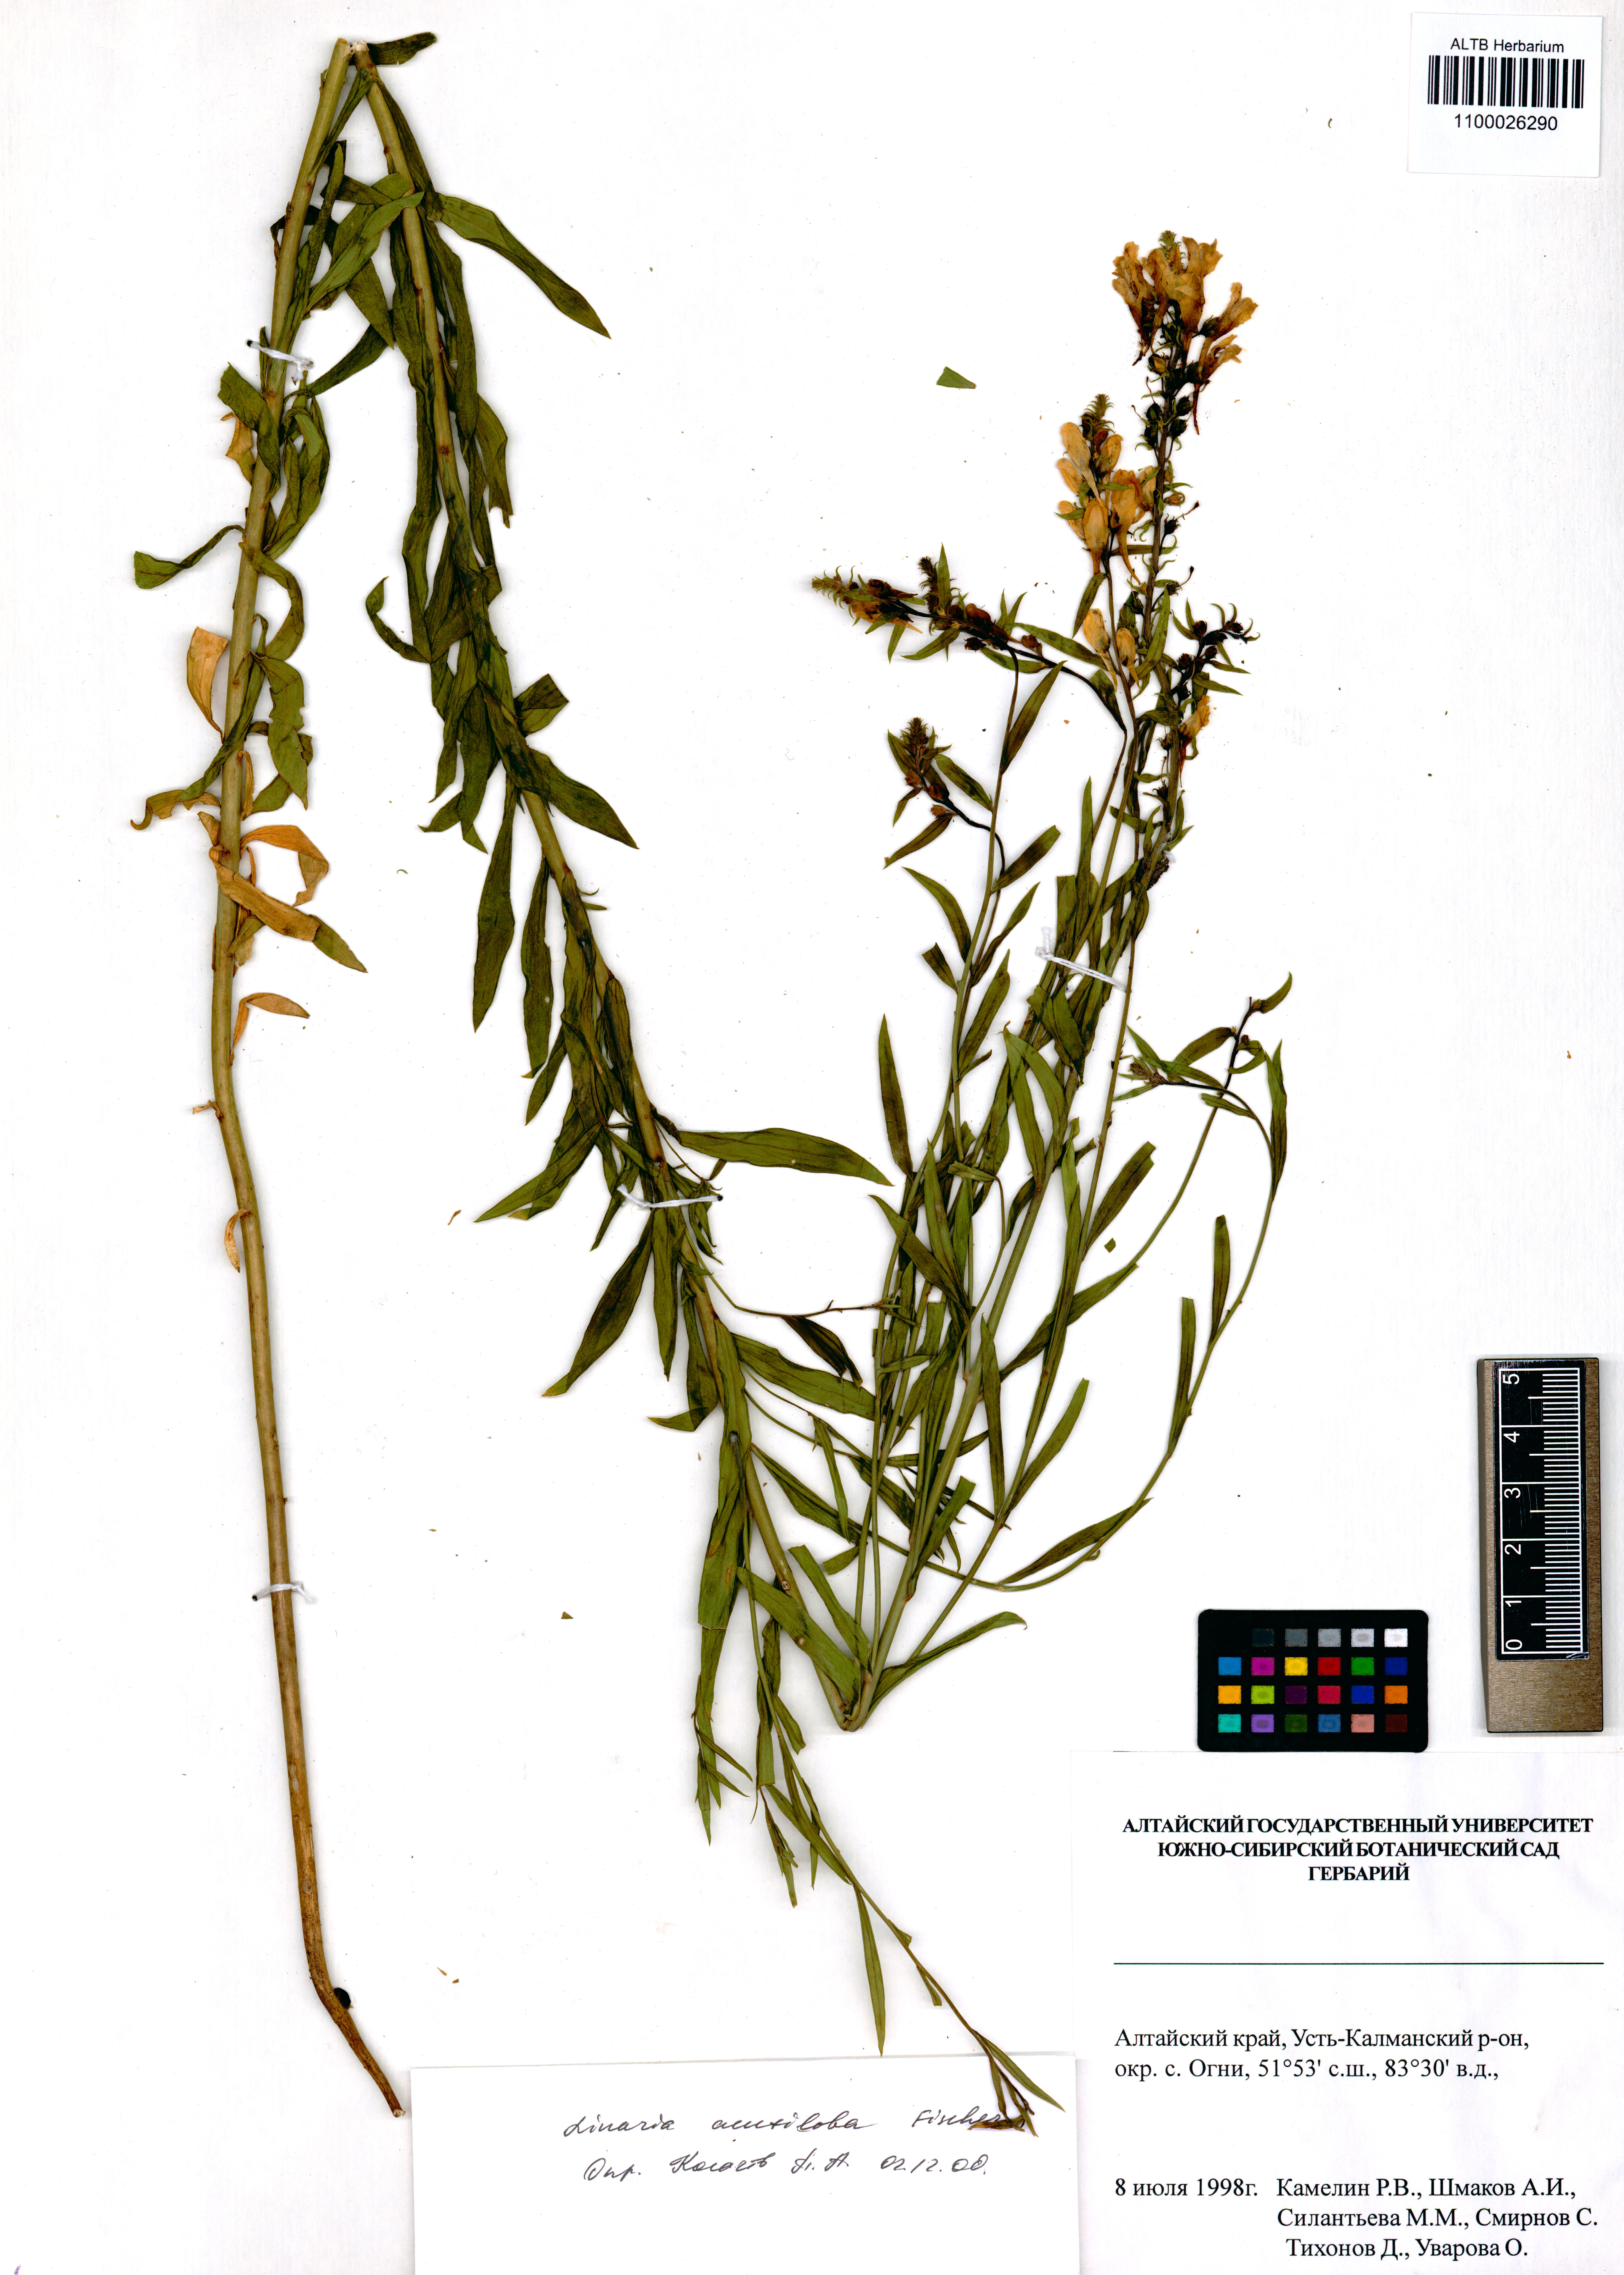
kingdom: Plantae
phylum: Tracheophyta
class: Magnoliopsida
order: Lamiales
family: Plantaginaceae
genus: Linaria
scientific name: Linaria acutiloba
